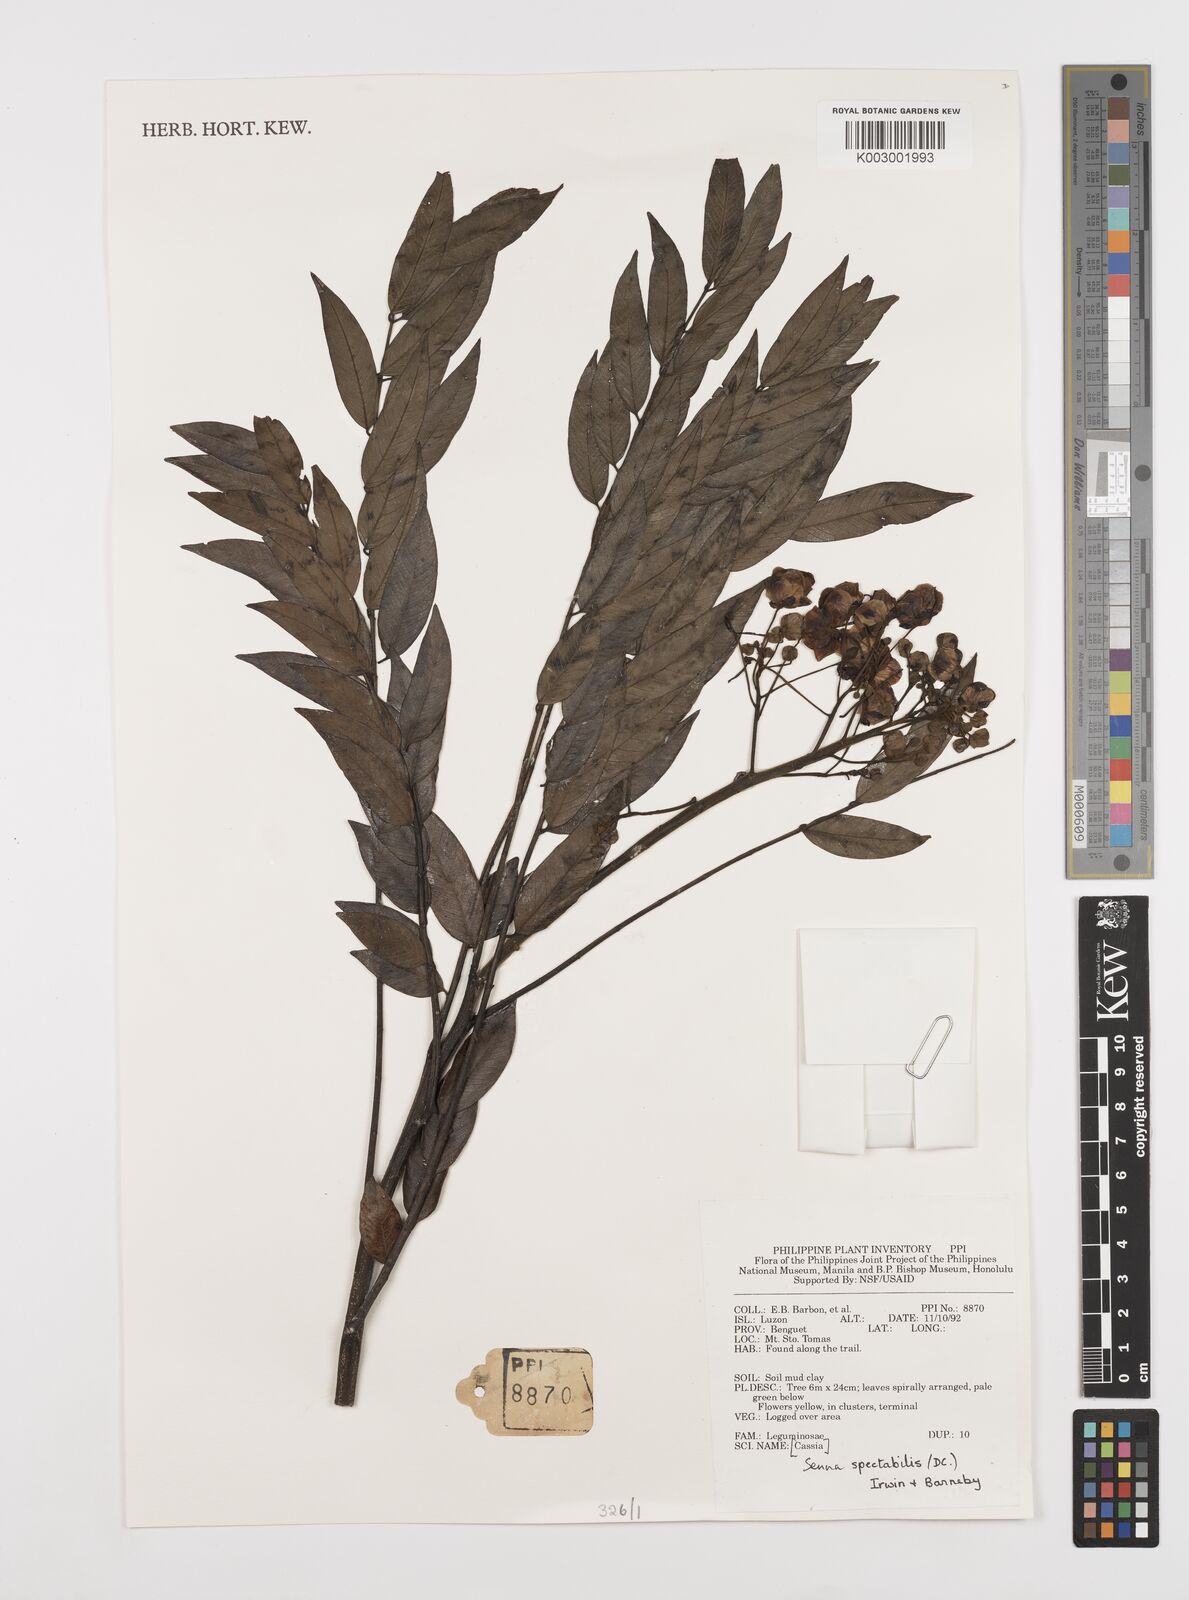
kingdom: Plantae
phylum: Tracheophyta
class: Magnoliopsida
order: Fabales
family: Fabaceae
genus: Senna
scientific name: Senna spectabilis
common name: Casia amarilla
